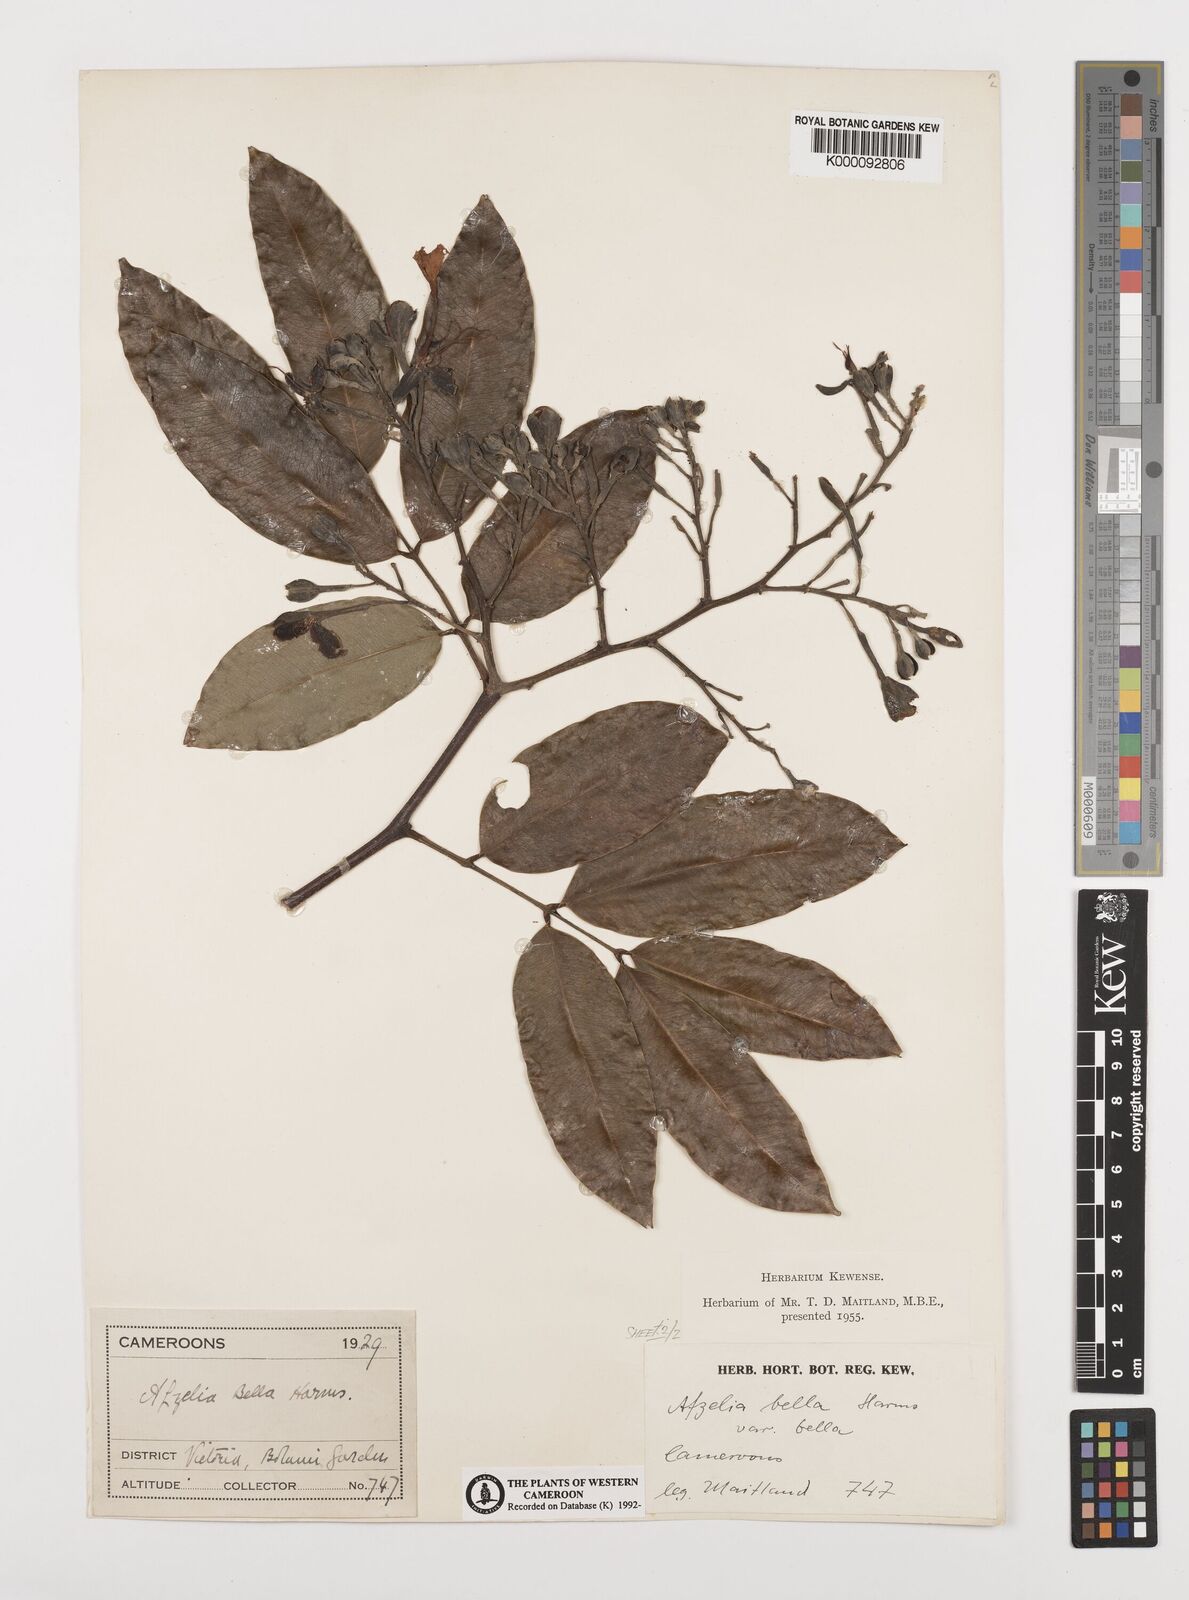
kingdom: Plantae
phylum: Tracheophyta
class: Magnoliopsida
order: Fabales
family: Fabaceae
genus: Afzelia
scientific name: Afzelia bella
